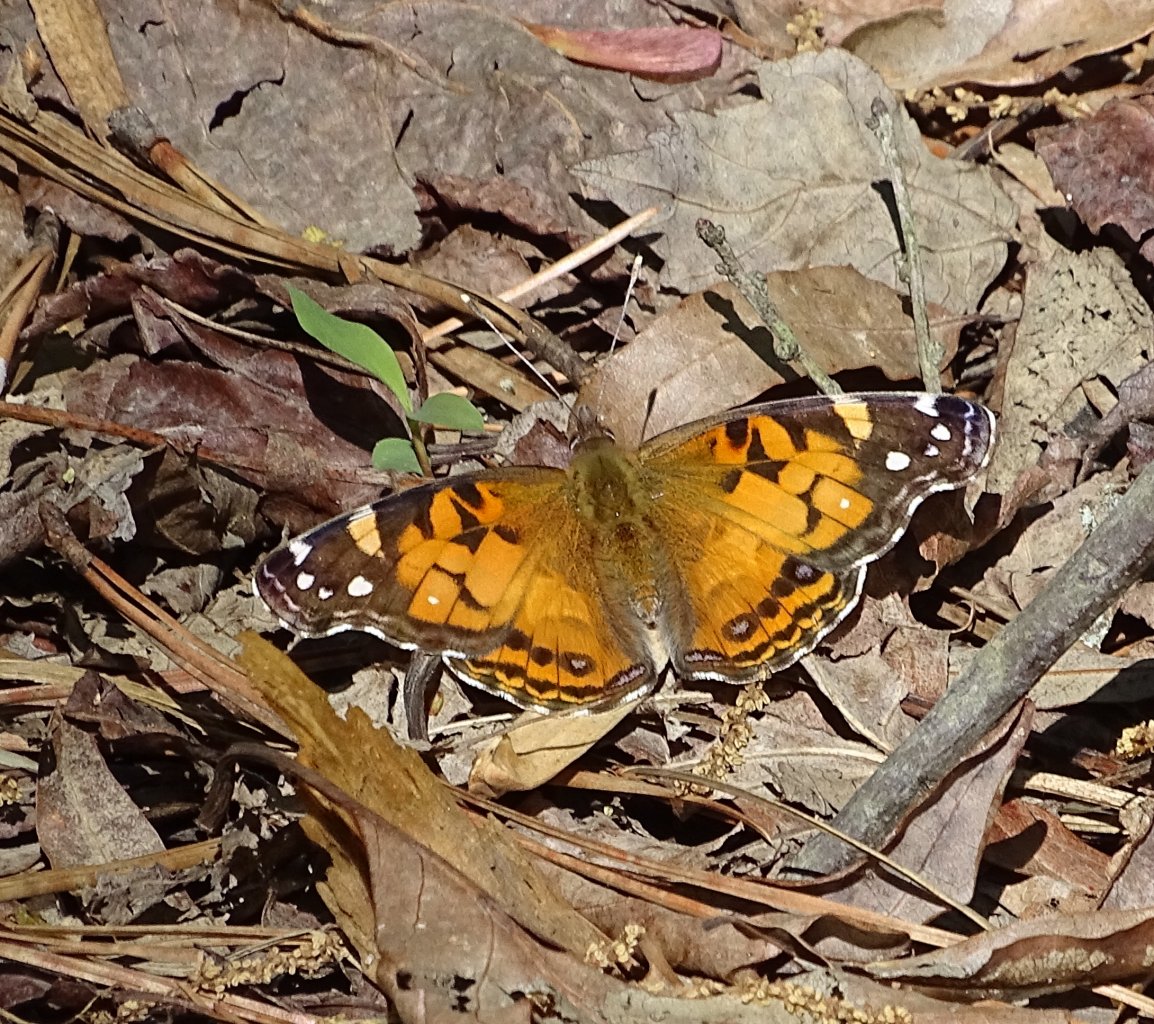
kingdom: Animalia
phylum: Arthropoda
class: Insecta
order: Lepidoptera
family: Nymphalidae
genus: Vanessa
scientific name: Vanessa virginiensis
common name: American Lady
